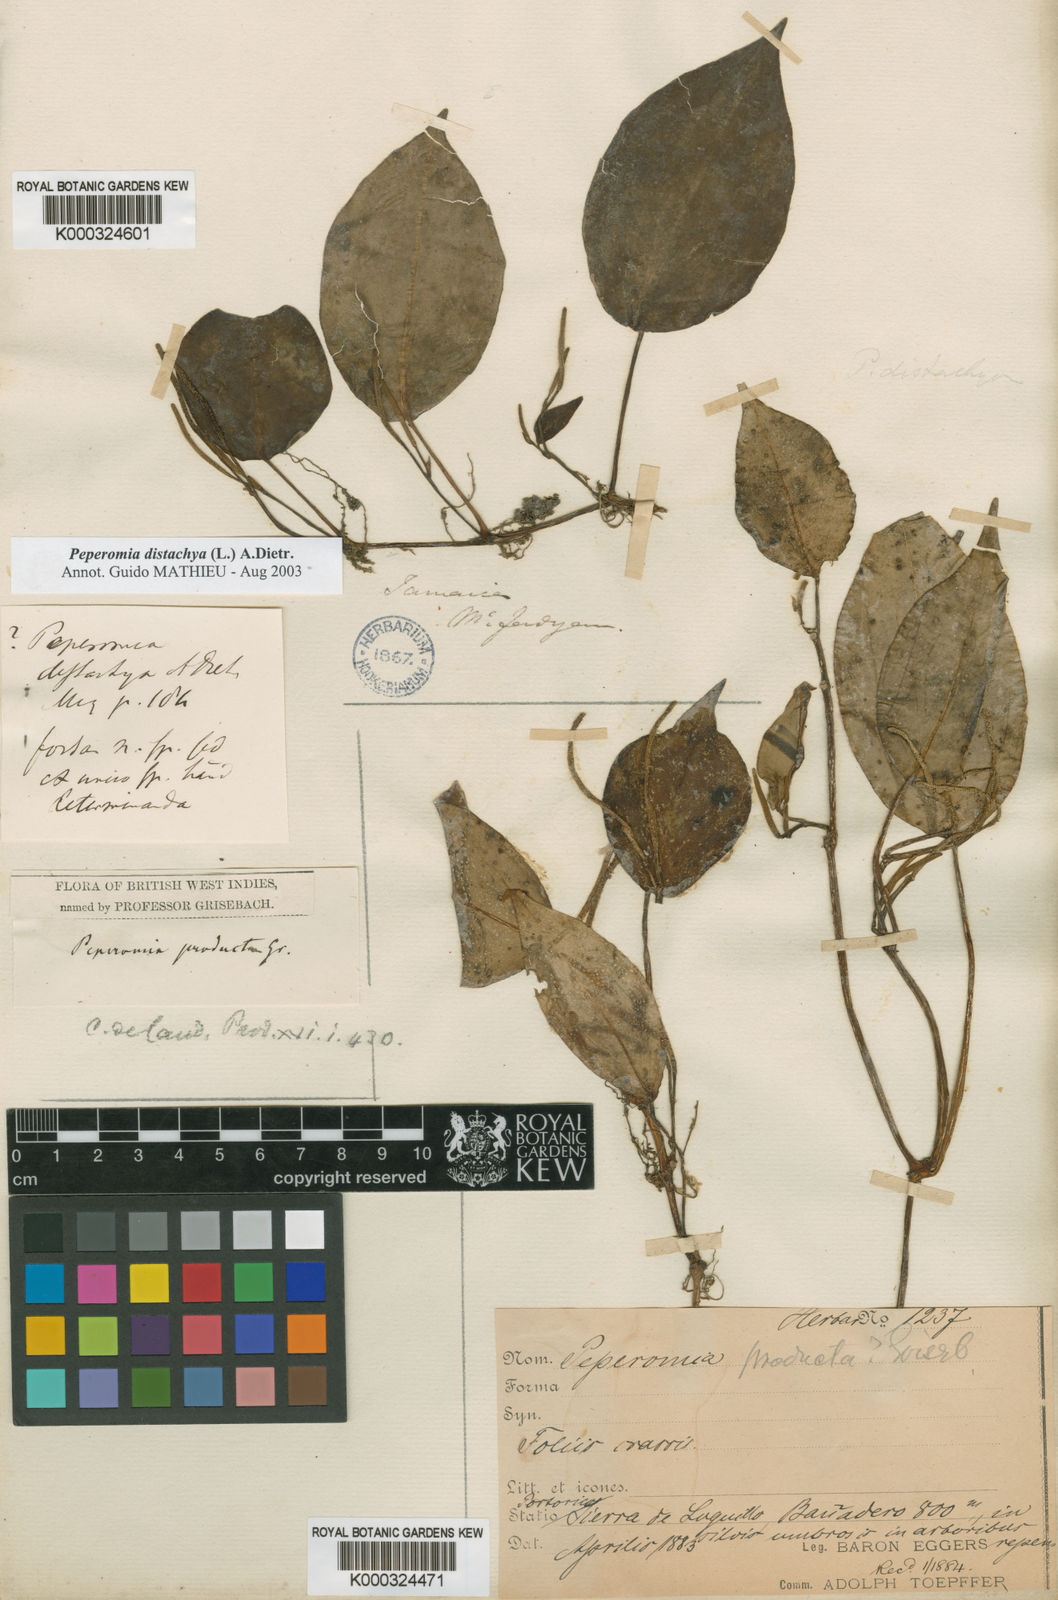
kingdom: Plantae
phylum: Tracheophyta
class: Magnoliopsida
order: Piperales
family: Piperaceae
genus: Peperomia
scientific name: Peperomia distachyos
